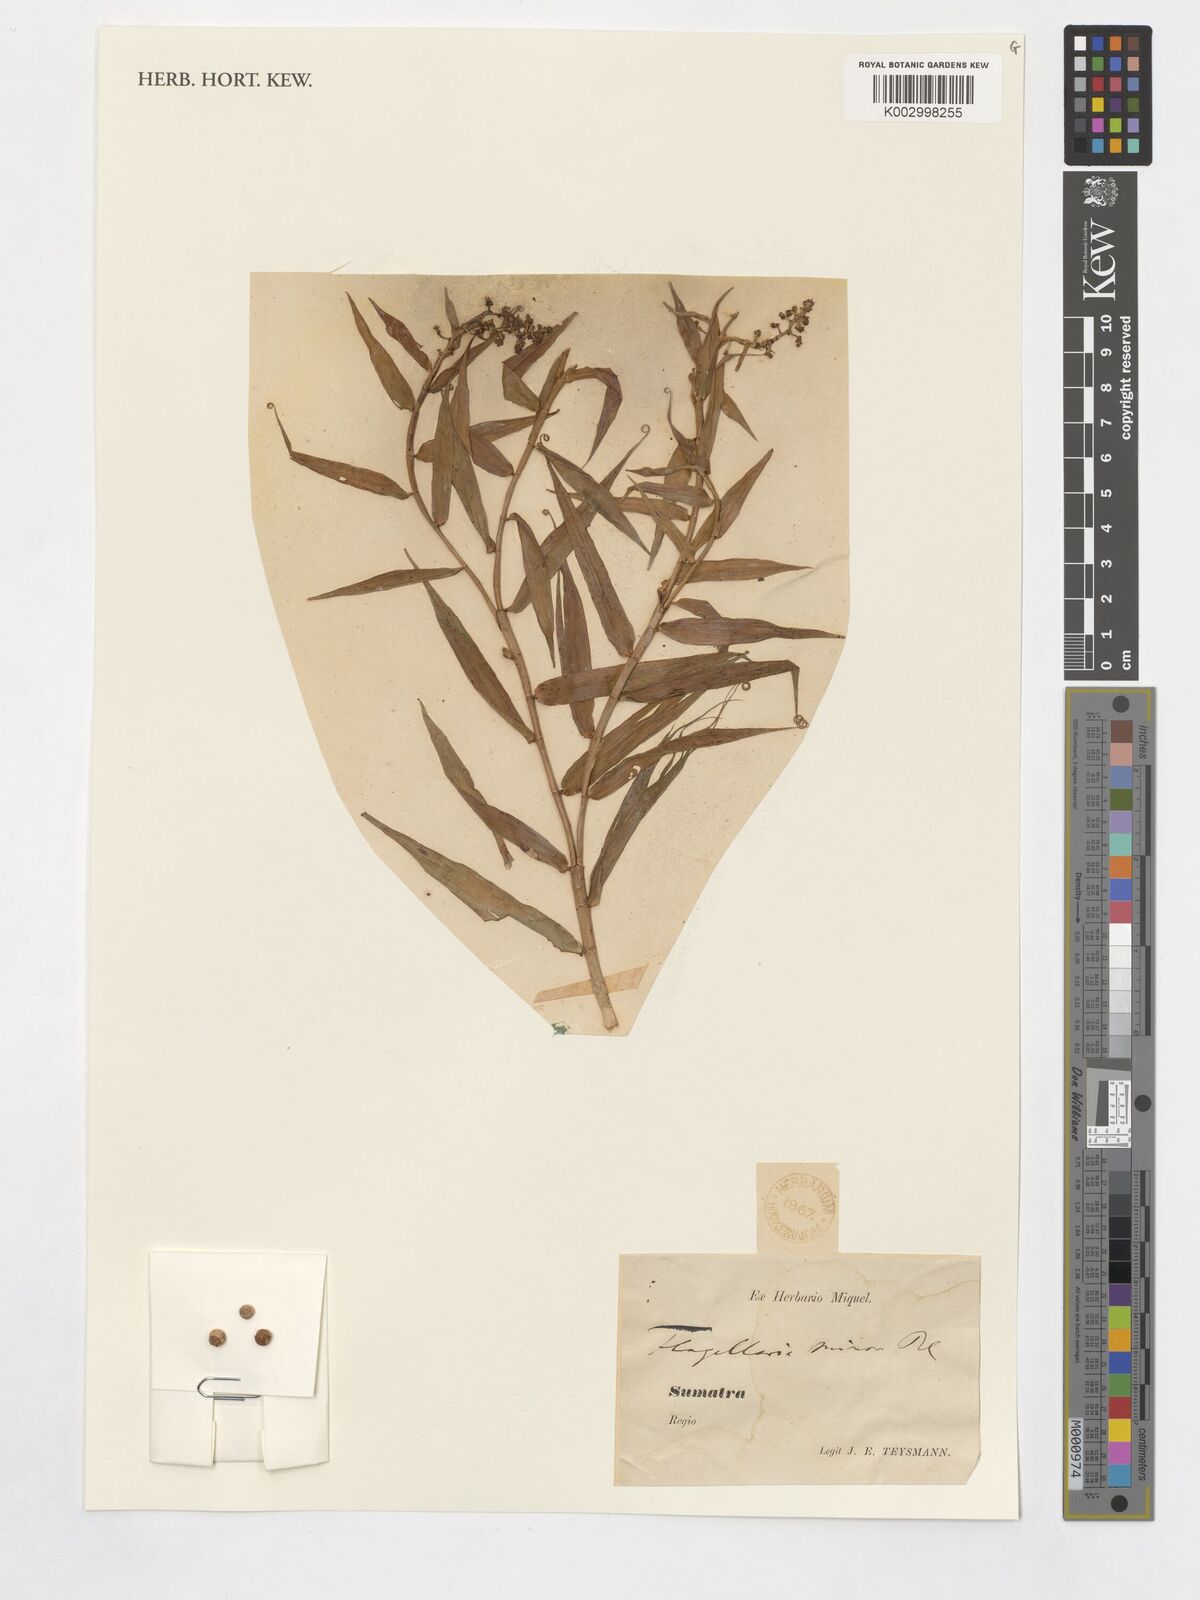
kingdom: Plantae
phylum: Tracheophyta
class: Liliopsida
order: Poales
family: Flagellariaceae
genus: Flagellaria
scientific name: Flagellaria
